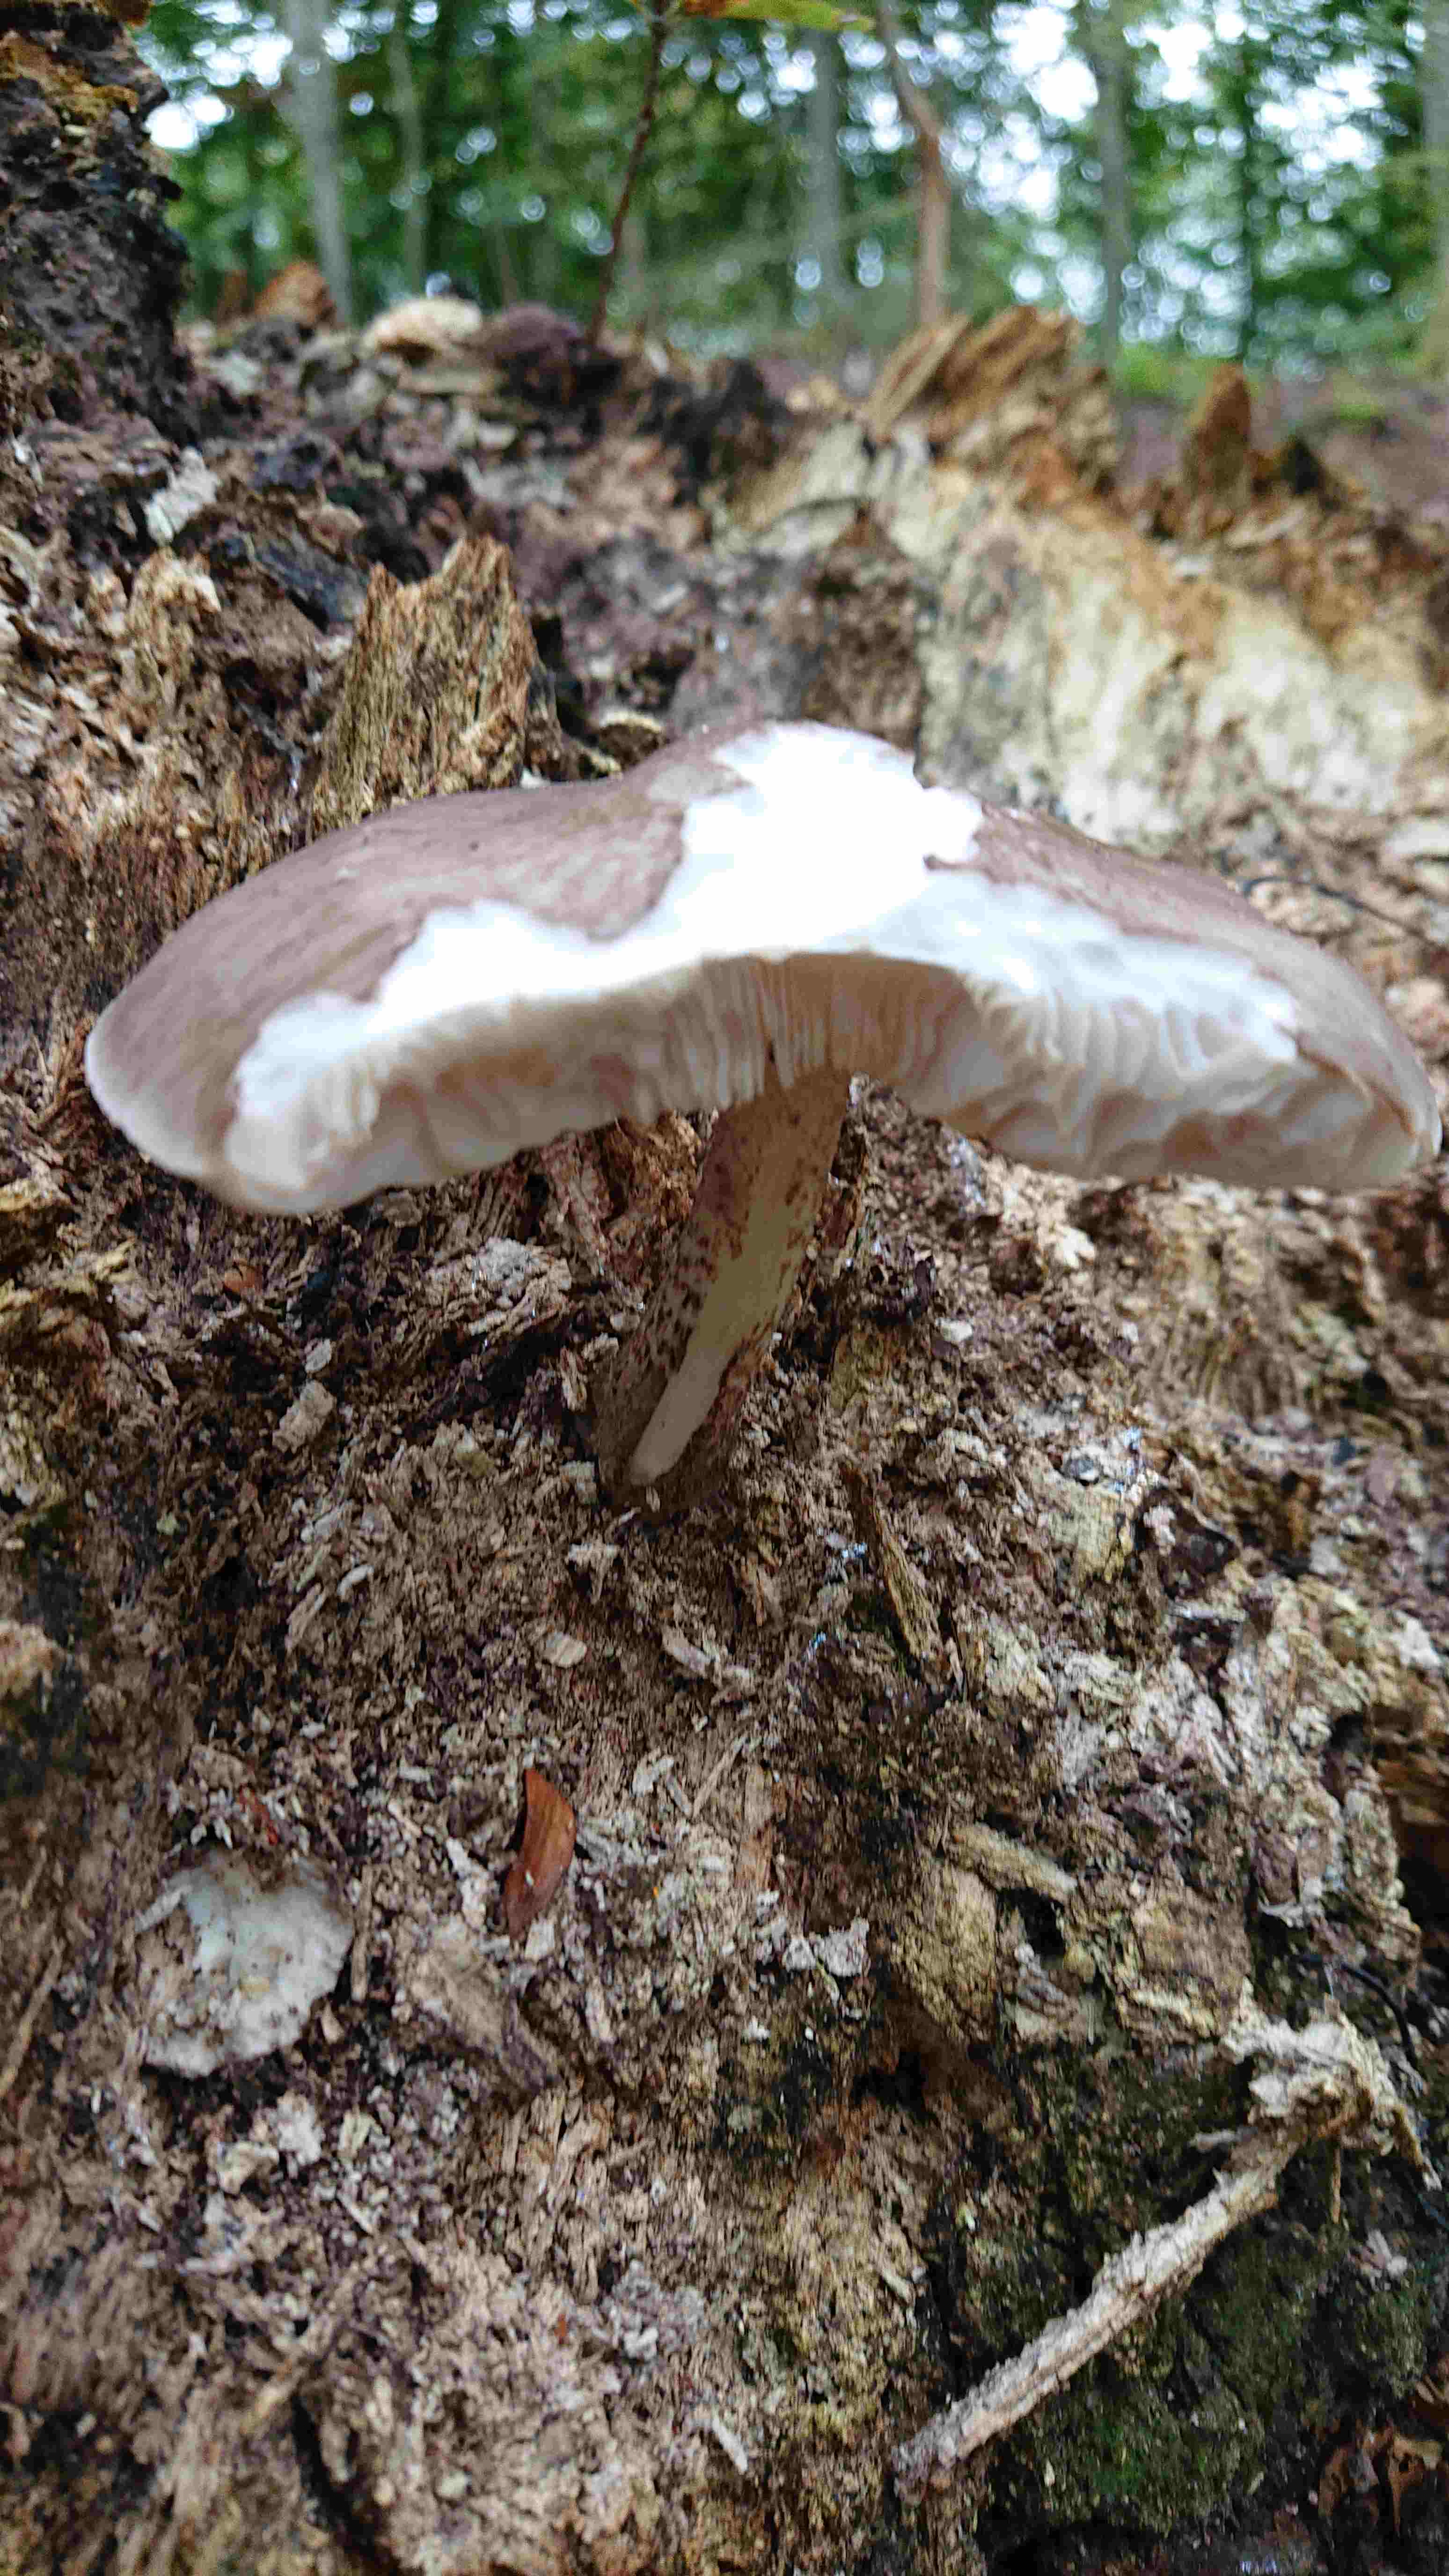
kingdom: Fungi
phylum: Basidiomycota
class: Agaricomycetes
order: Agaricales
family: Pluteaceae
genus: Pluteus
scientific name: Pluteus cervinus
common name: sodfarvet skærmhat
